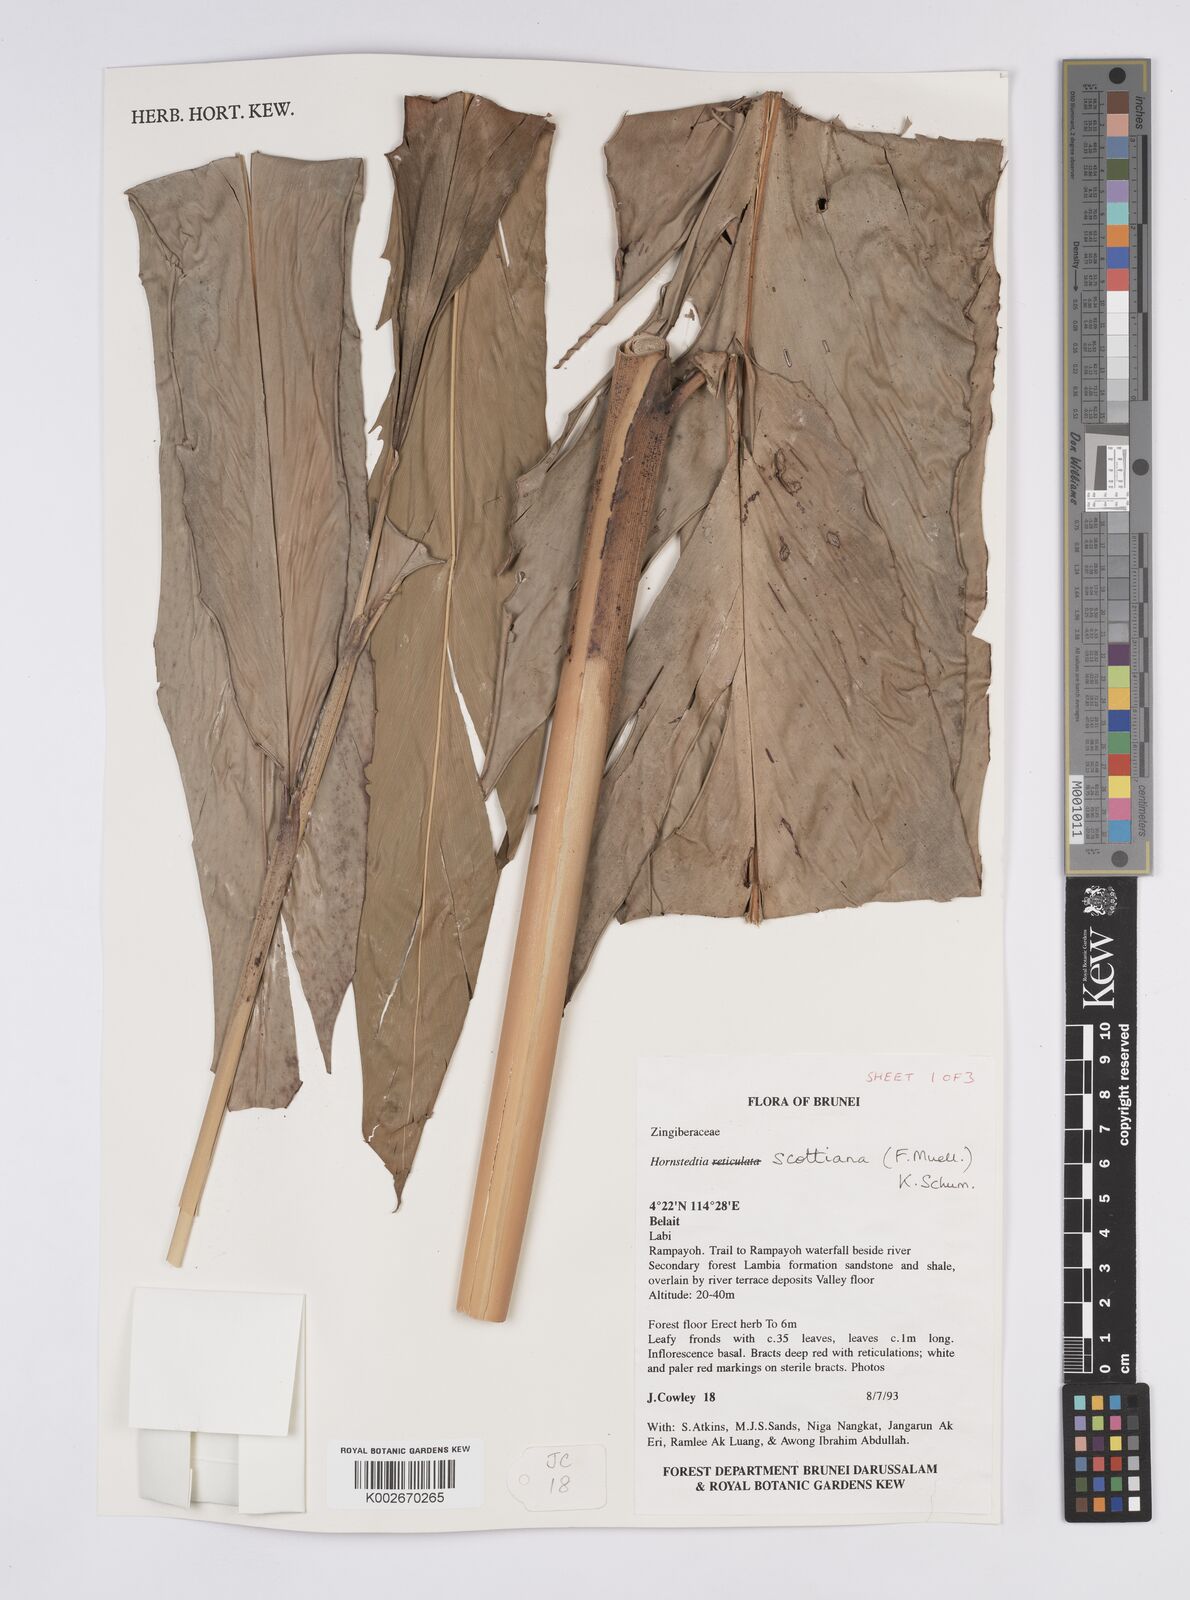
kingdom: Plantae
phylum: Tracheophyta
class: Liliopsida
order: Zingiberales
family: Zingiberaceae
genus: Hornstedtia
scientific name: Hornstedtia scottiana
